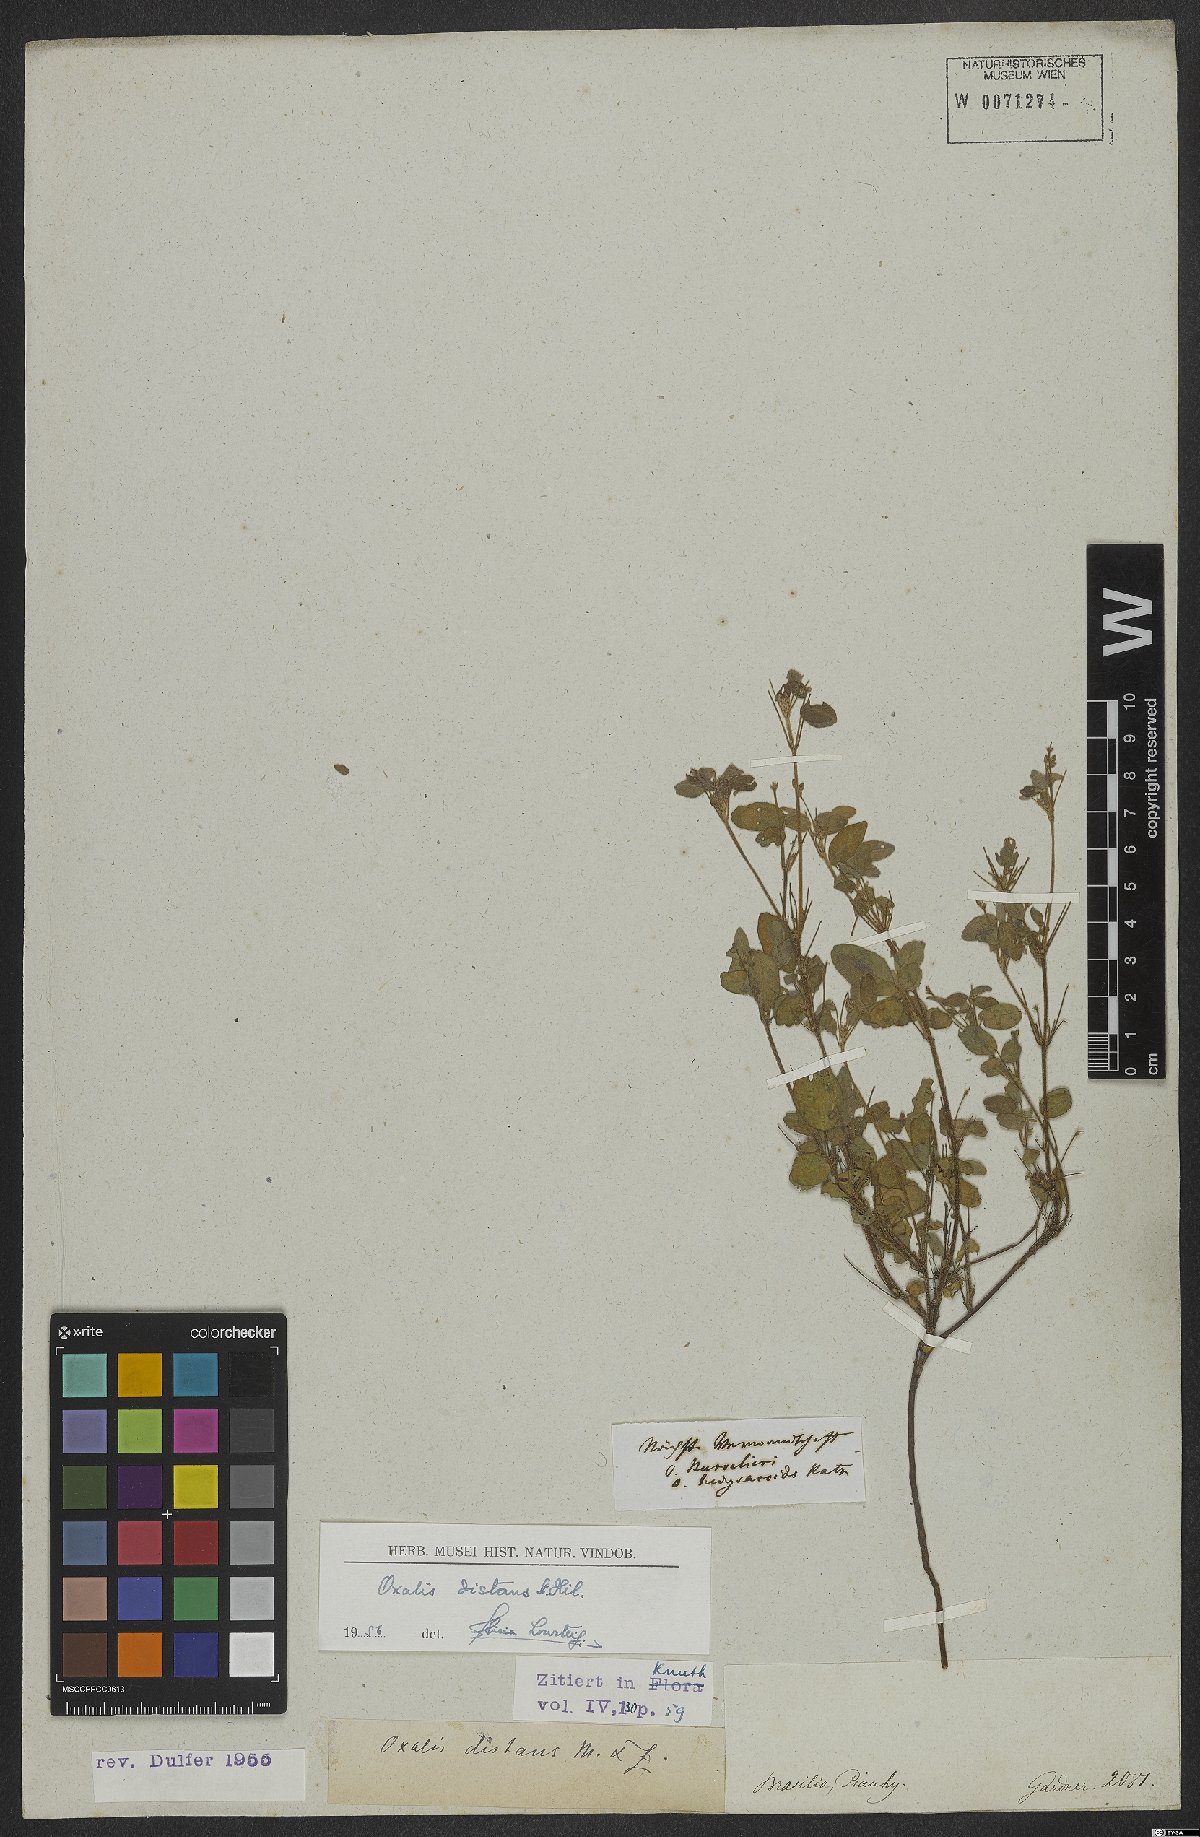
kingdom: Plantae
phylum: Tracheophyta
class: Magnoliopsida
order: Oxalidales
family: Oxalidaceae
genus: Oxalis
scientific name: Oxalis frutescens
